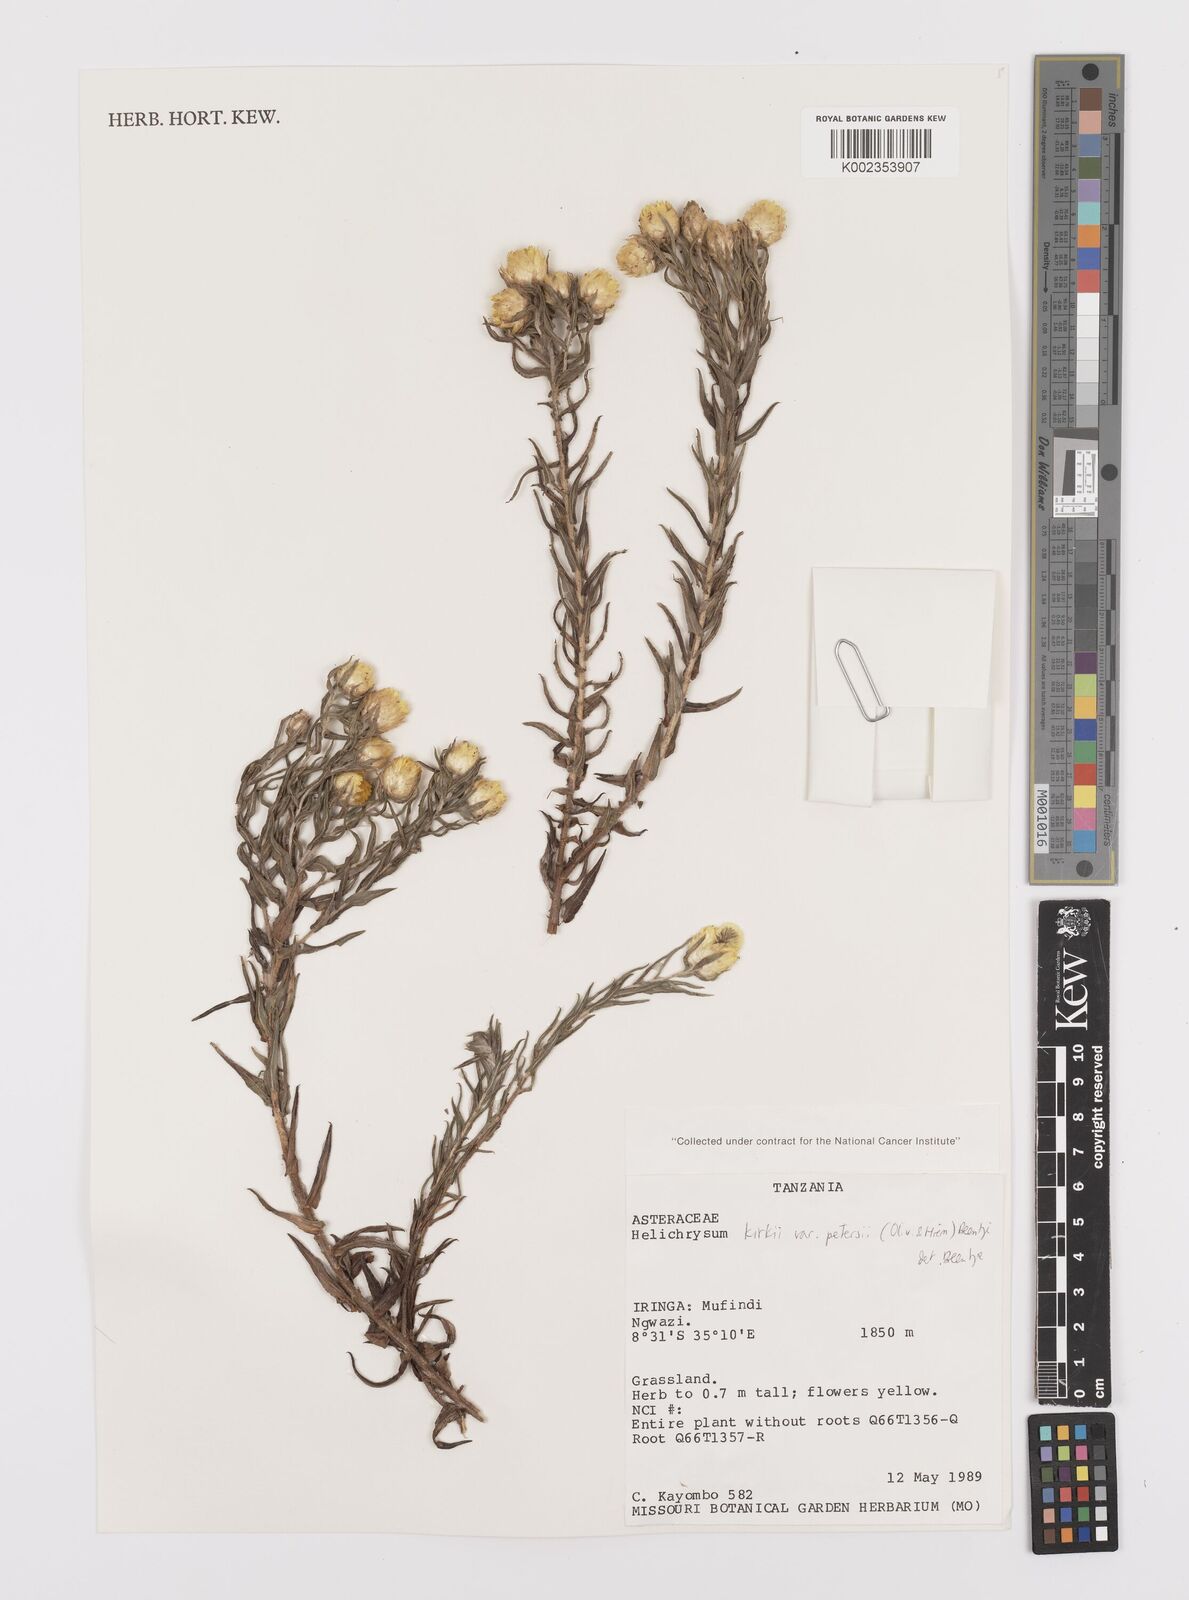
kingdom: Plantae
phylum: Tracheophyta
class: Magnoliopsida
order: Asterales
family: Asteraceae
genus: Helichrysum
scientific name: Helichrysum kirkii
